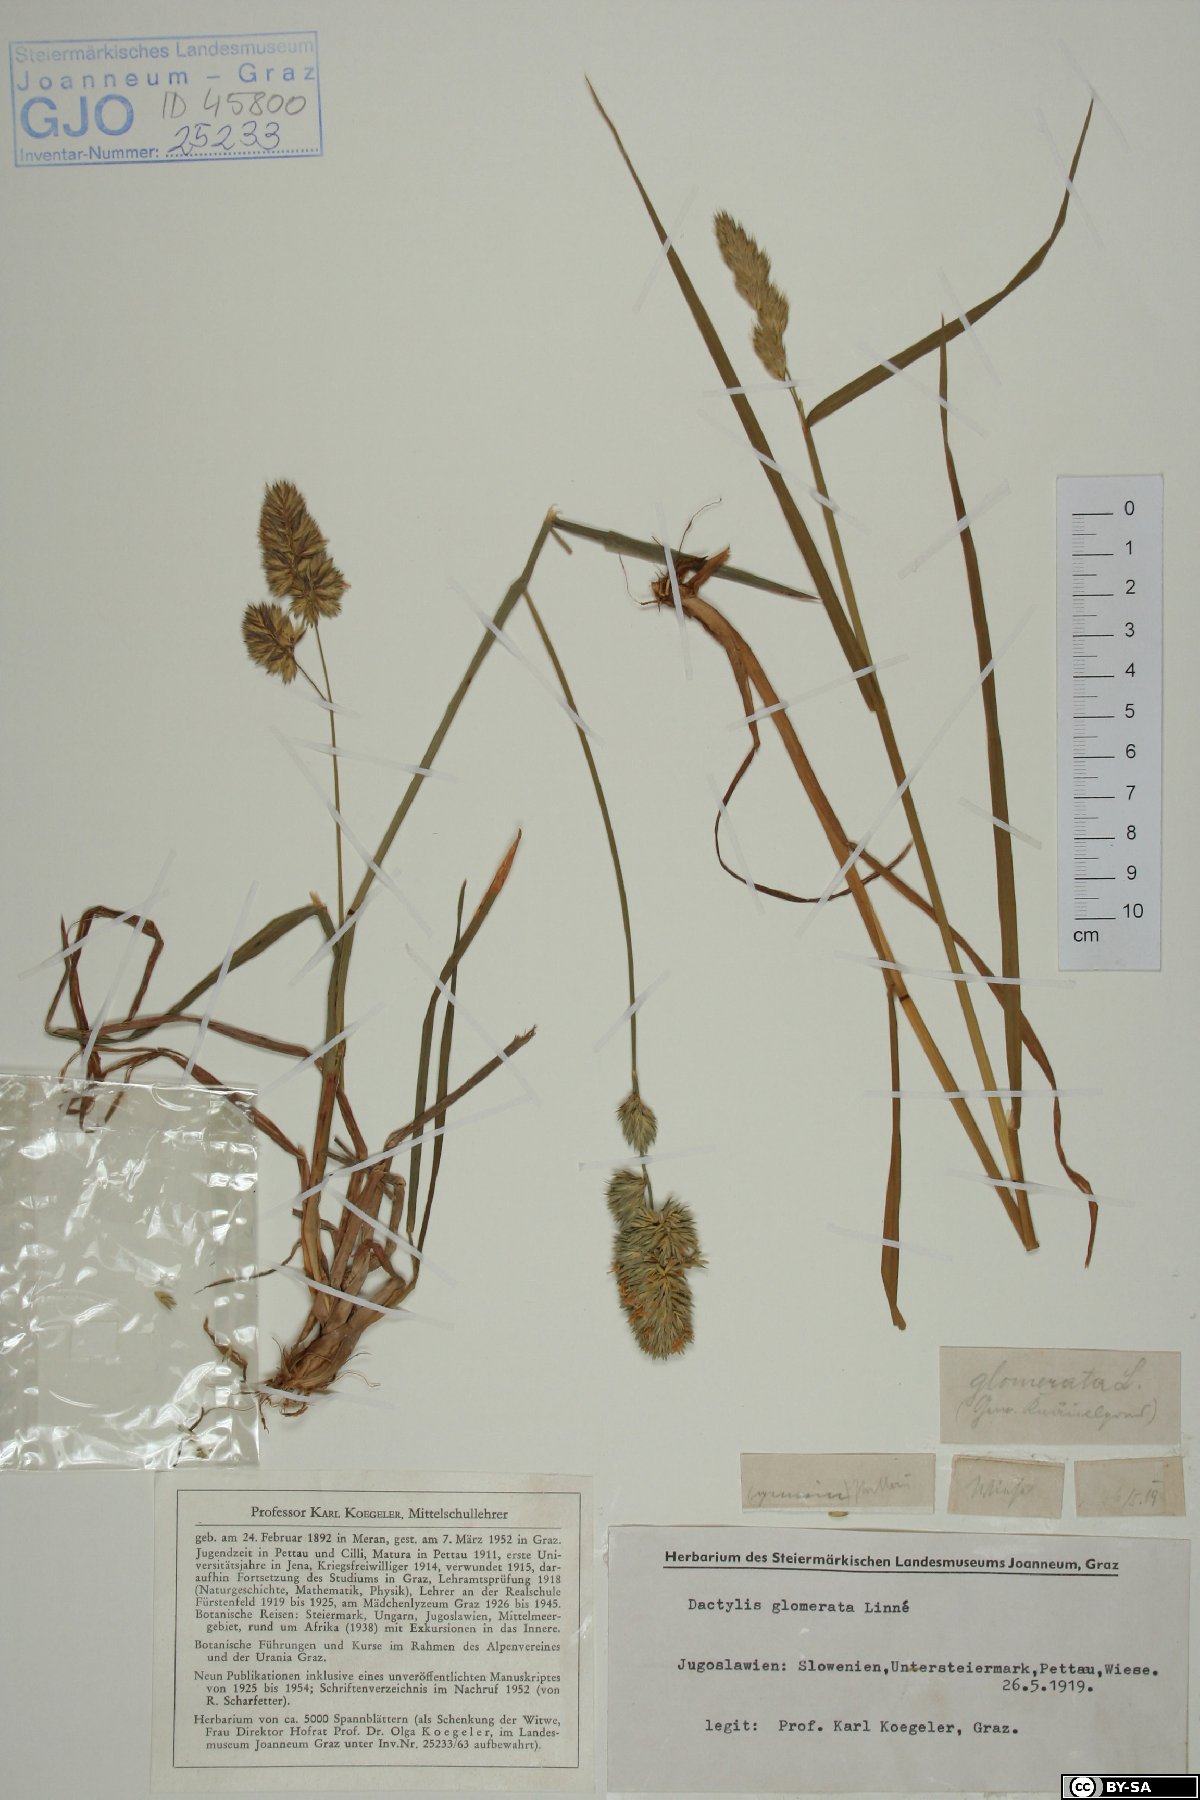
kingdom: Plantae
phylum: Tracheophyta
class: Liliopsida
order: Poales
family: Poaceae
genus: Dactylis
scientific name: Dactylis glomerata
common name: Orchardgrass
